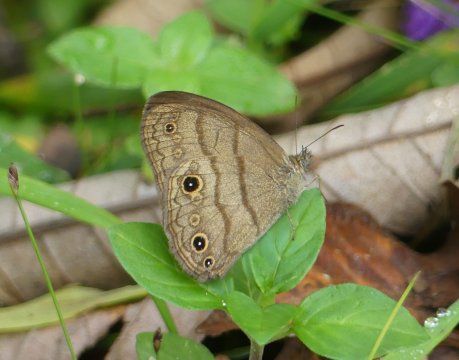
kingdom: Animalia
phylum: Arthropoda
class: Insecta
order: Lepidoptera
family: Nymphalidae
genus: Hermeuptychia
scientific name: Hermeuptychia hermes
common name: Hermes Satyr
